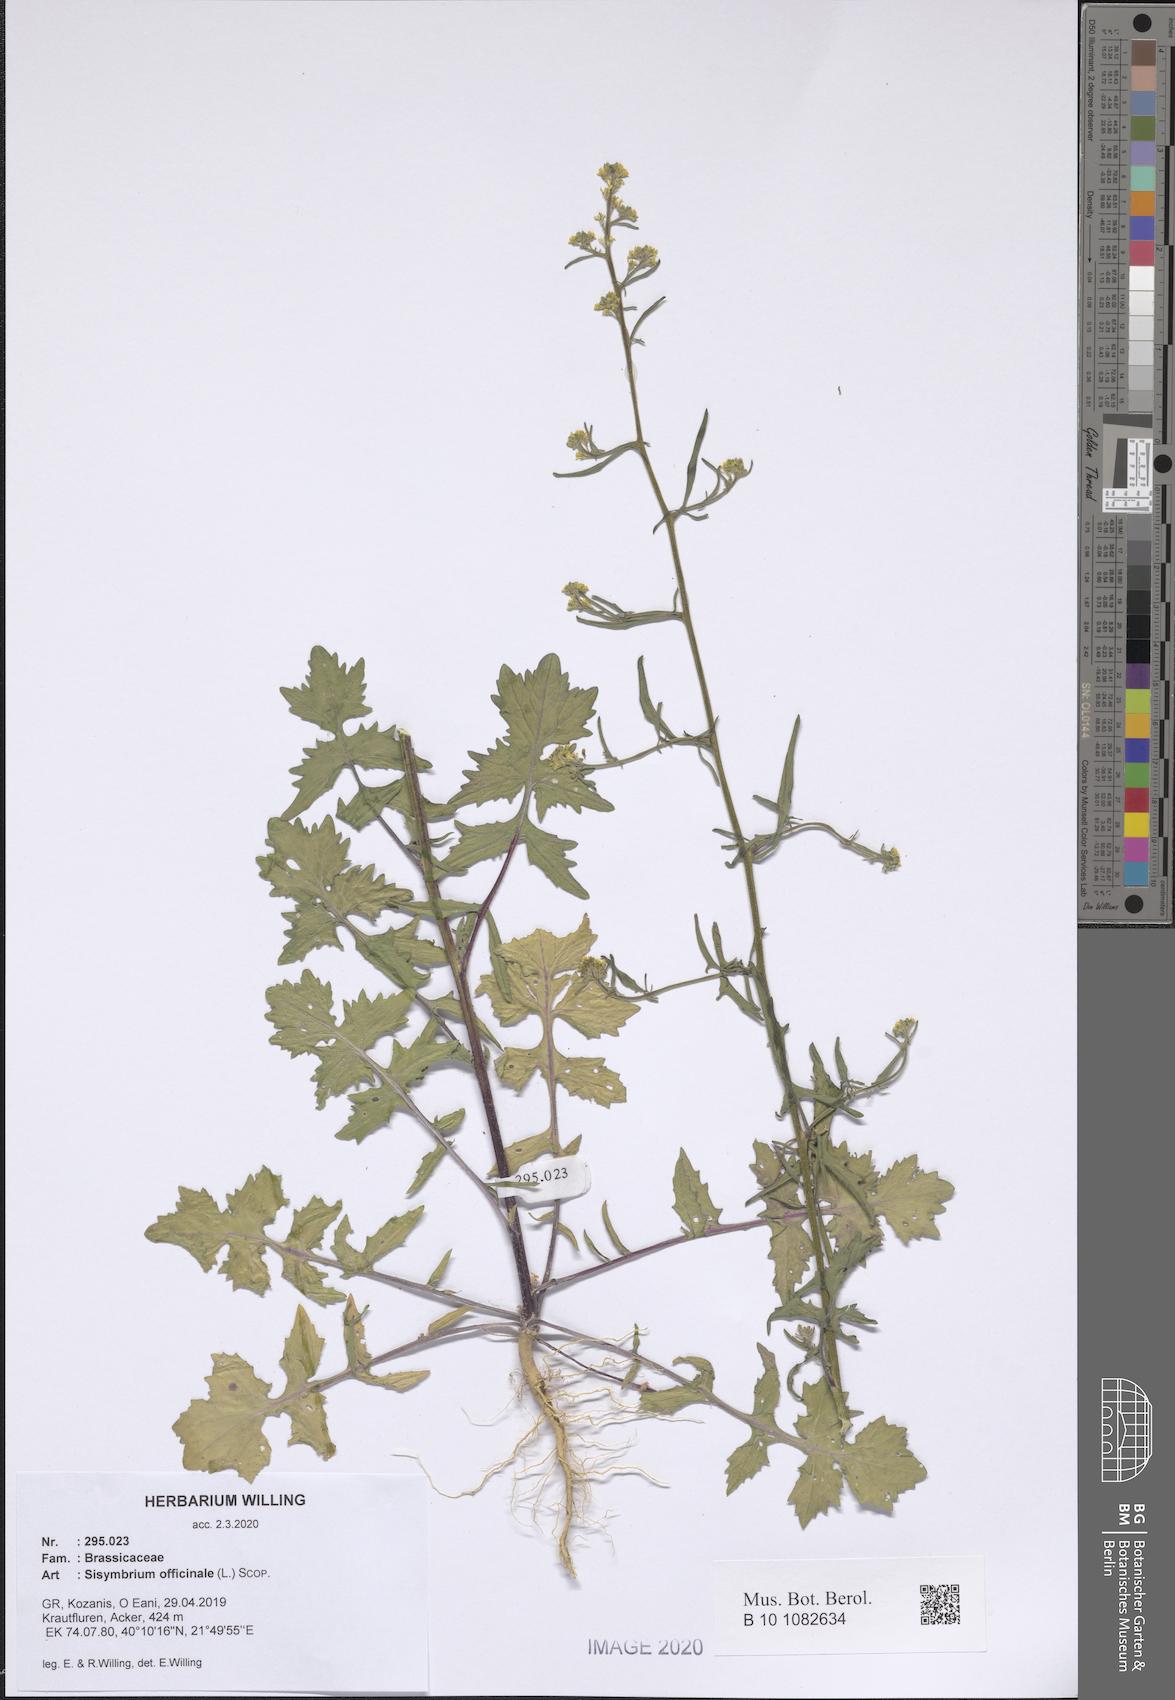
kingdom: Plantae
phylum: Tracheophyta
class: Magnoliopsida
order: Brassicales
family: Brassicaceae
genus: Sisymbrium
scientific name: Sisymbrium officinale
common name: Hedge mustard
